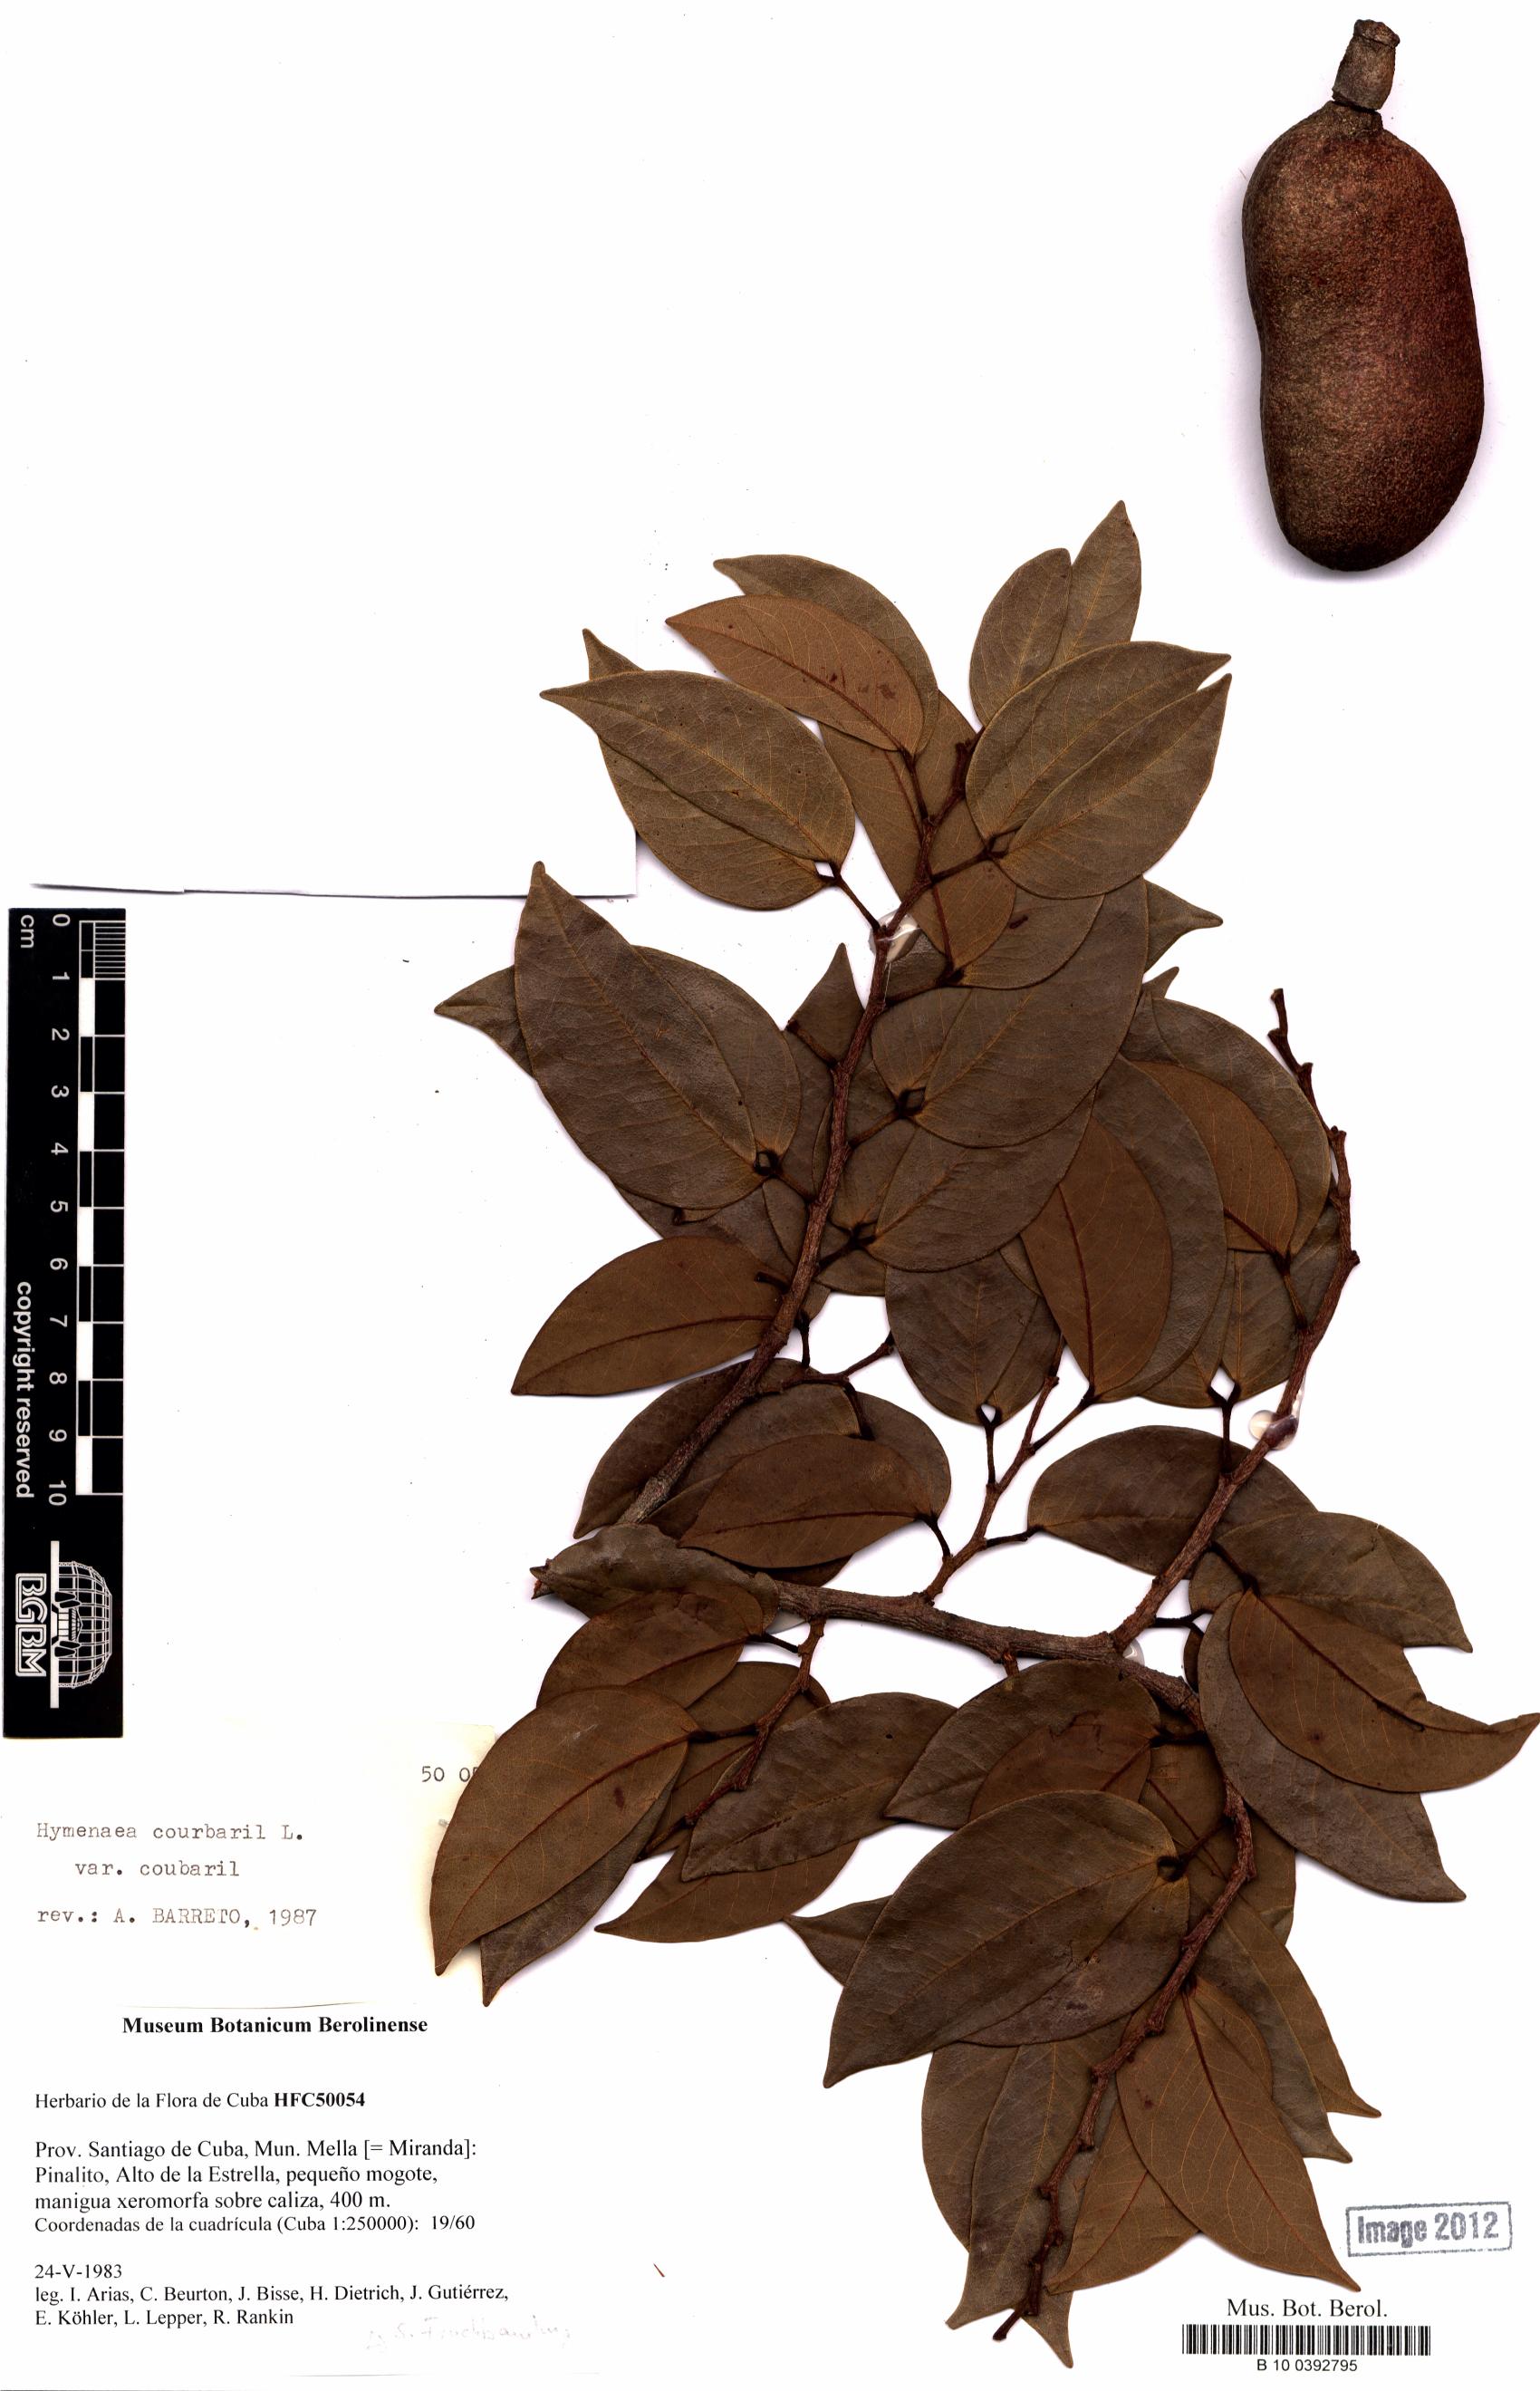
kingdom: Plantae
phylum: Tracheophyta
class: Magnoliopsida
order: Fabales
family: Fabaceae
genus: Hymenaea
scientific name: Hymenaea courbaril
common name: Brazilian copal
